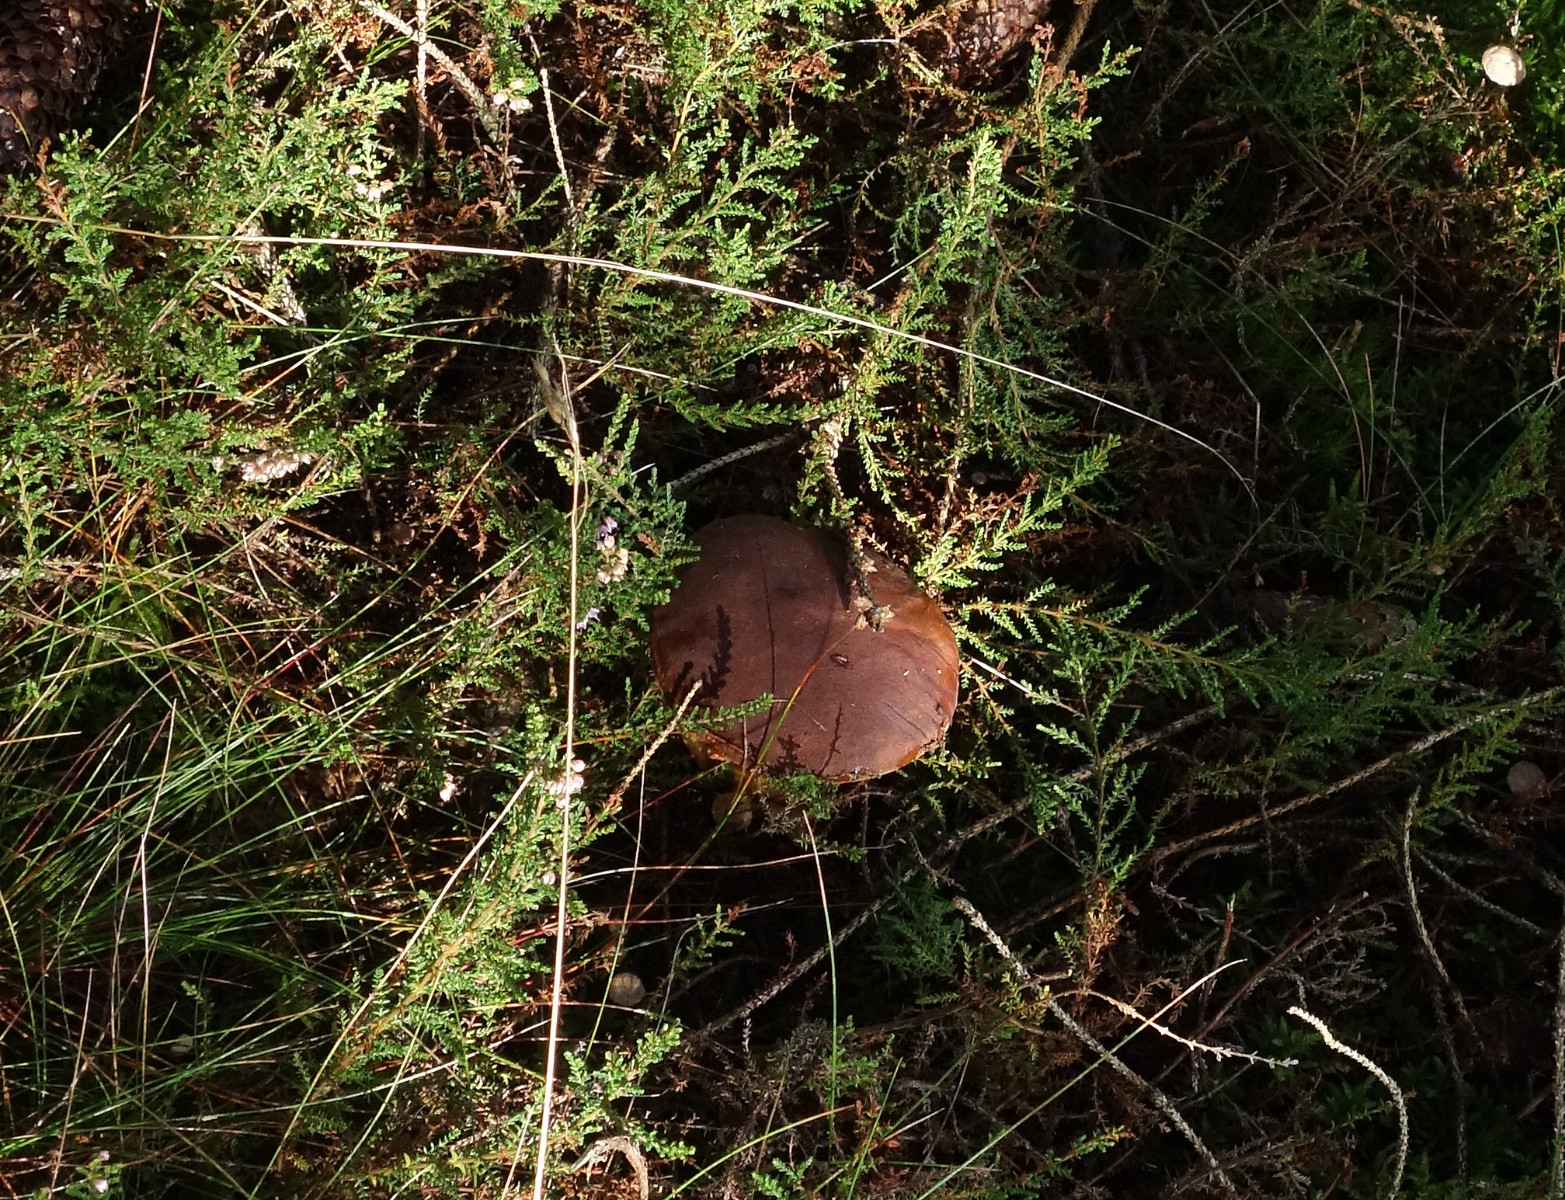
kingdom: Fungi
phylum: Basidiomycota
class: Agaricomycetes
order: Boletales
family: Boletaceae
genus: Imleria
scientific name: Imleria badia
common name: brunstokket rørhat
